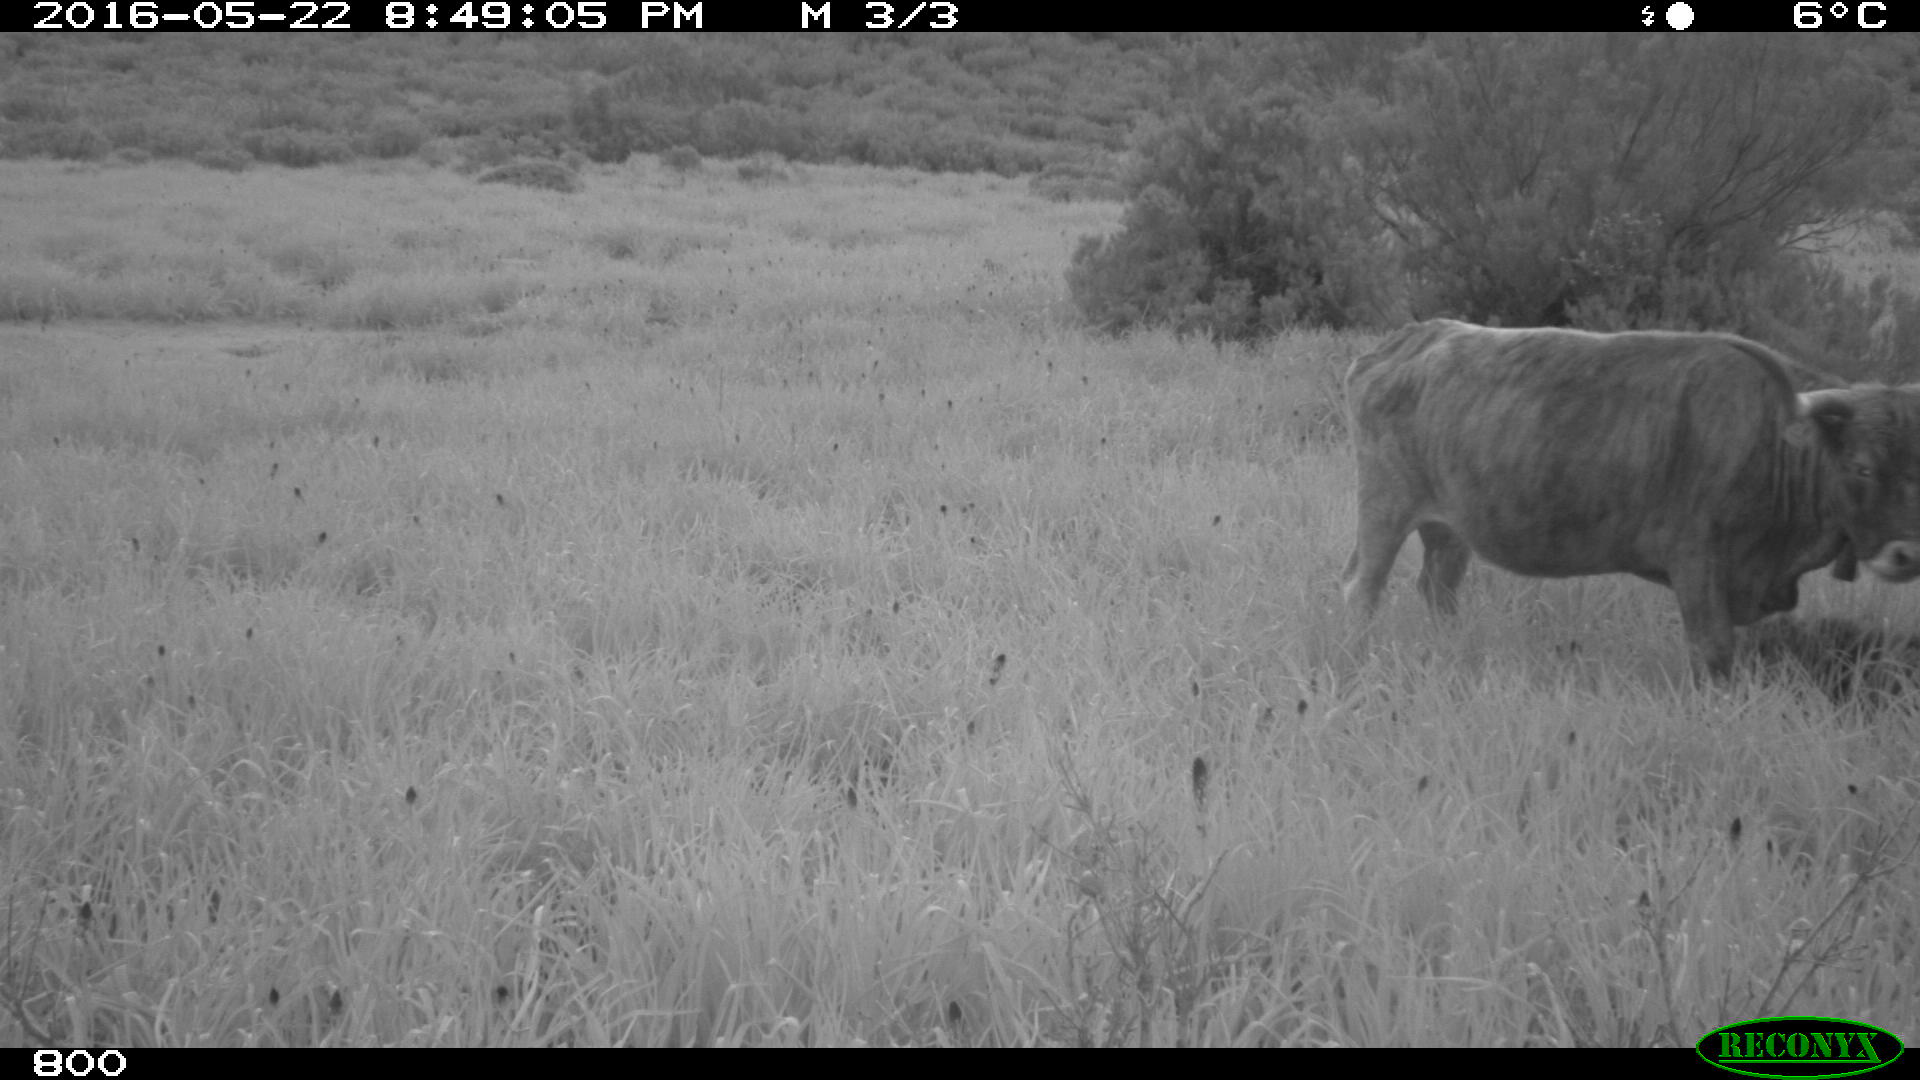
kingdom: Animalia
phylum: Chordata
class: Mammalia
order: Artiodactyla
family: Bovidae
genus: Bos
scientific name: Bos taurus
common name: Domesticated cattle
